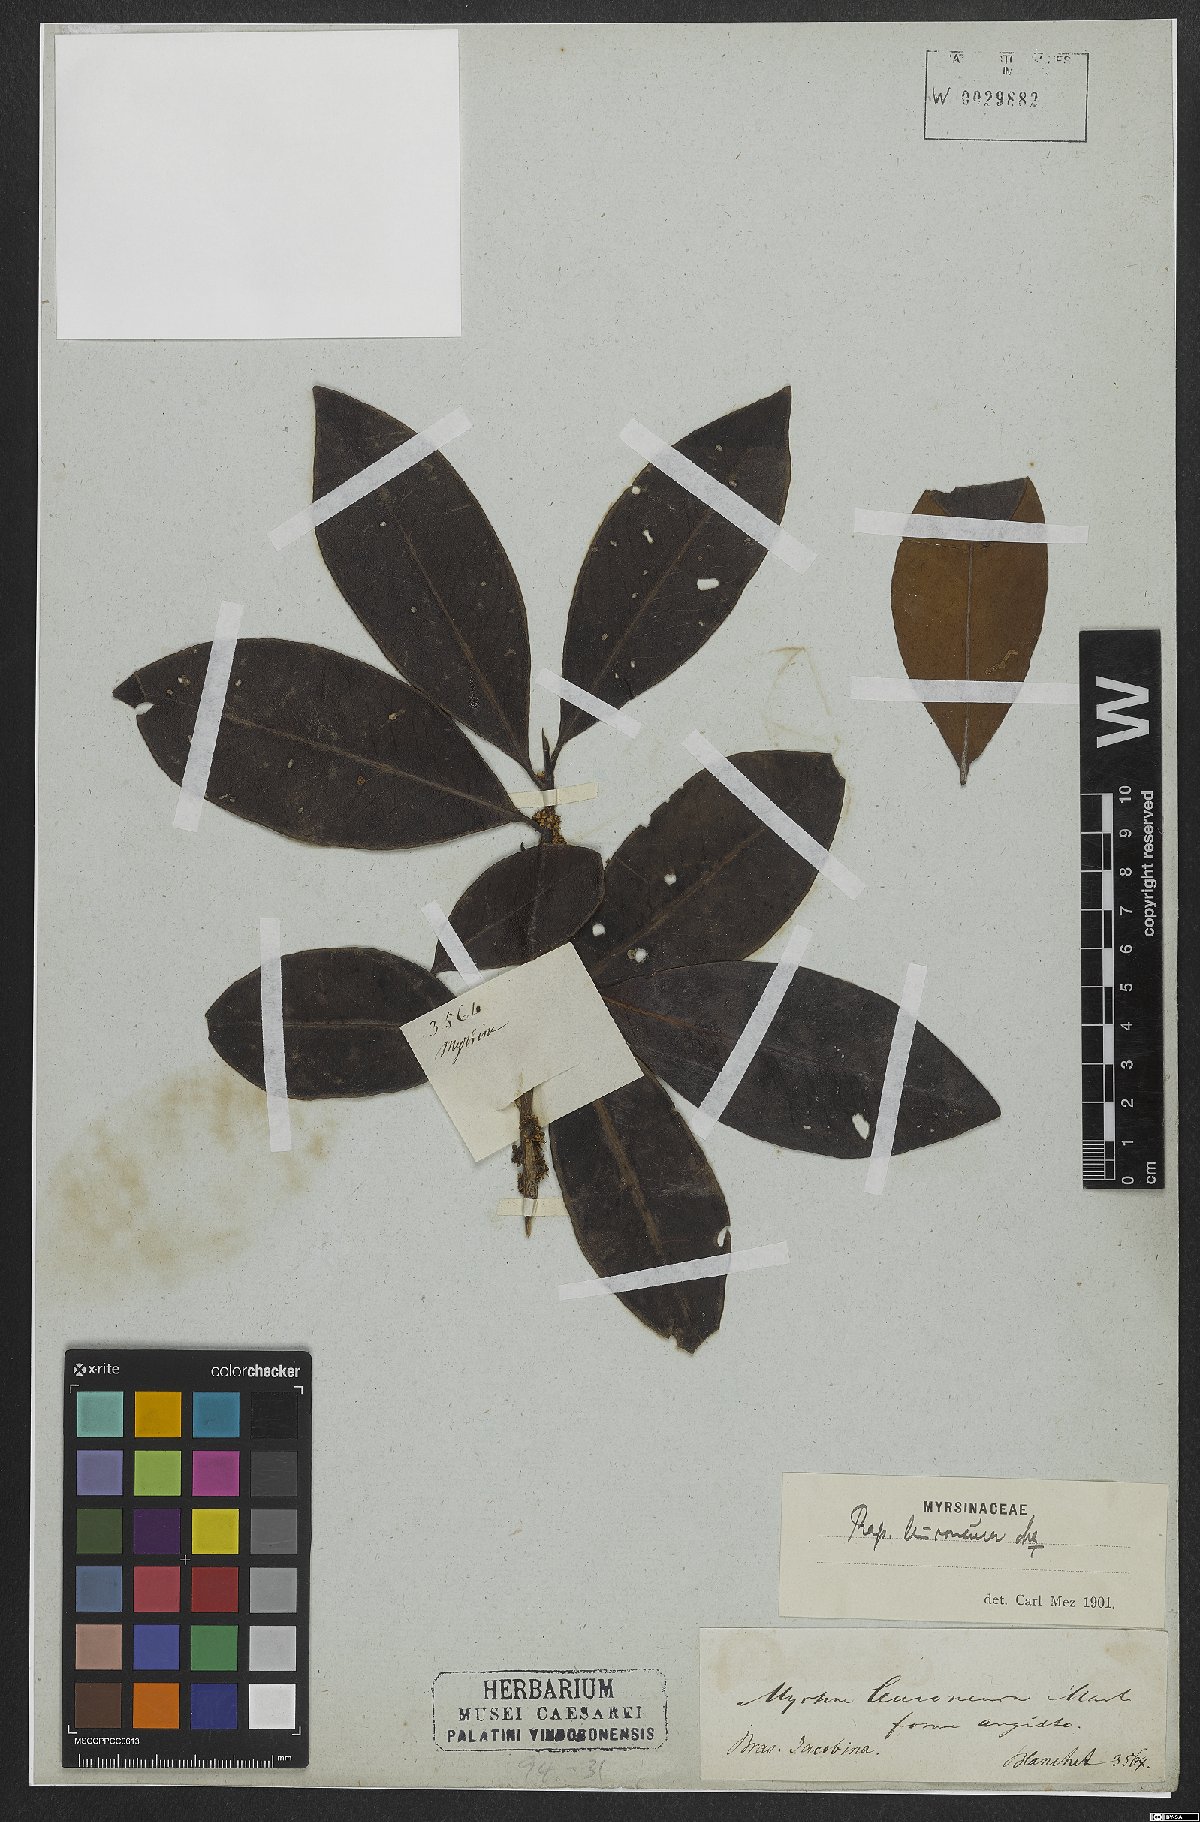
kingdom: Plantae
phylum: Tracheophyta
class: Magnoliopsida
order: Ericales
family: Primulaceae
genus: Myrsine
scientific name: Myrsine leuconeura
